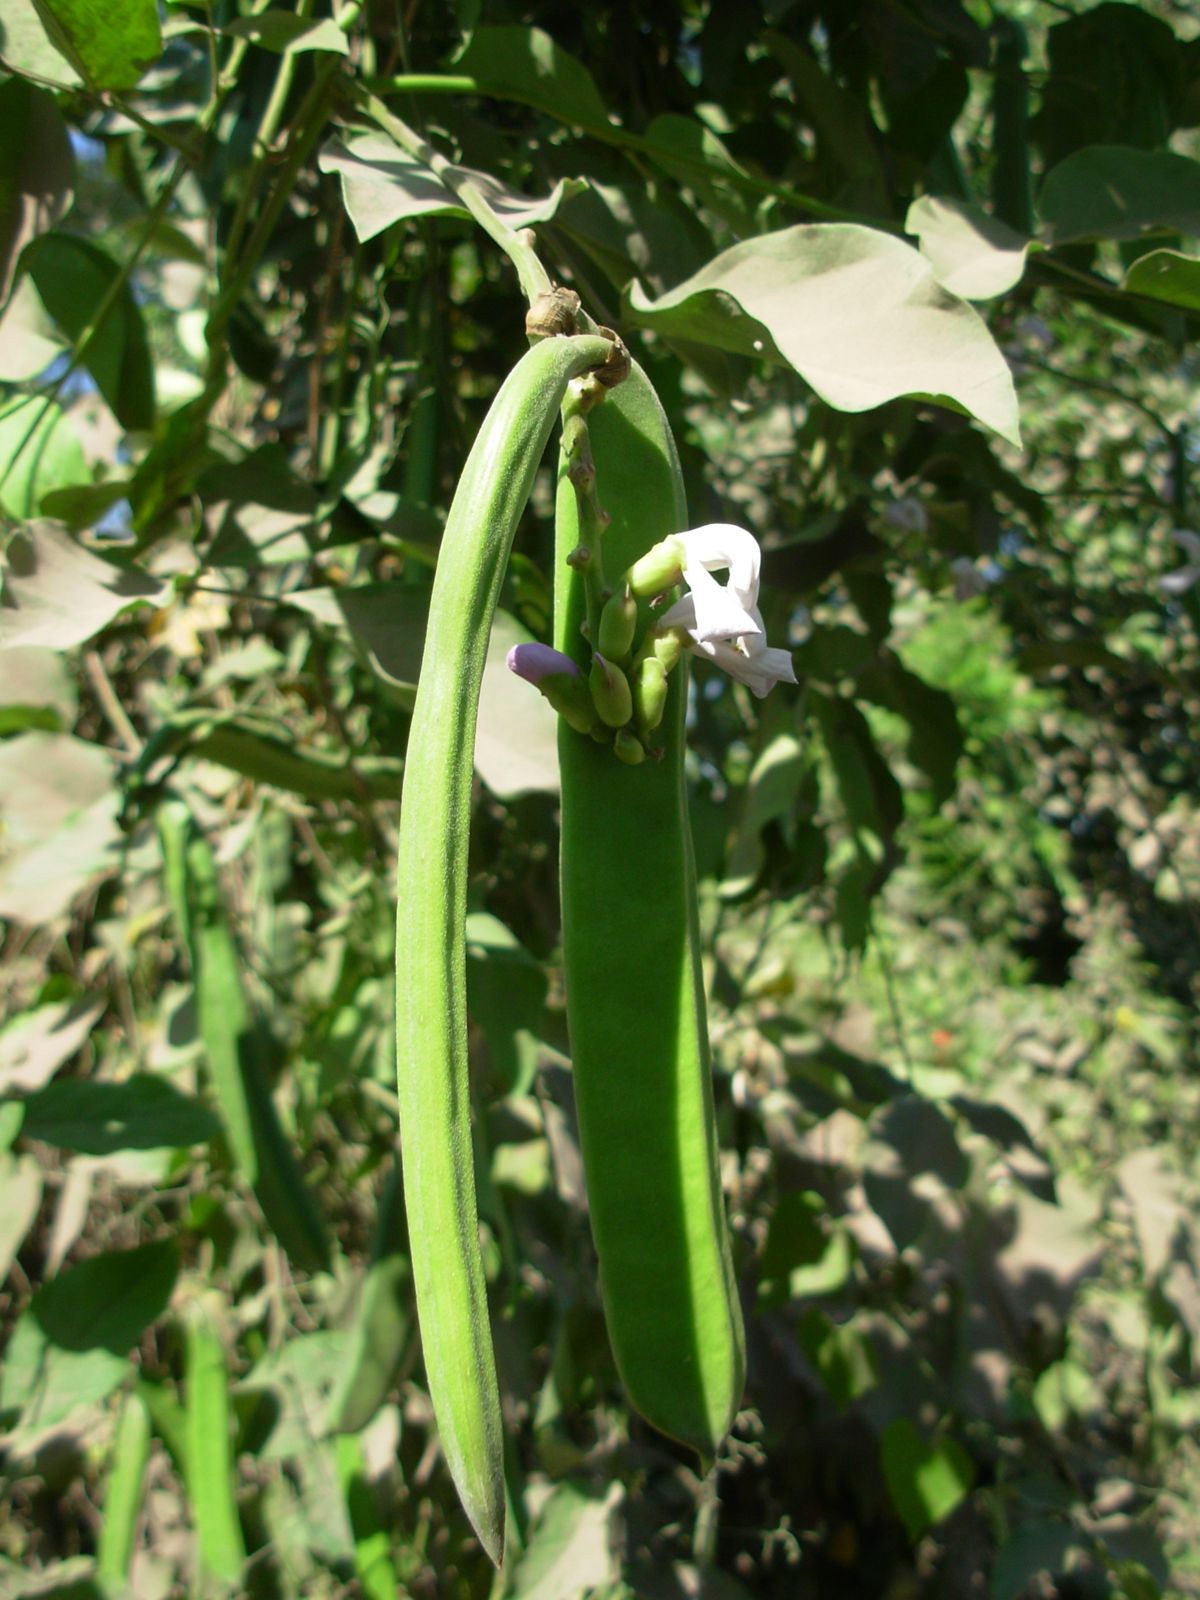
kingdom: Plantae
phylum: Tracheophyta
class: Magnoliopsida
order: Fabales
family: Fabaceae
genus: Canavalia
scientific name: Canavalia brasiliensis
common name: Barbicou-bean
